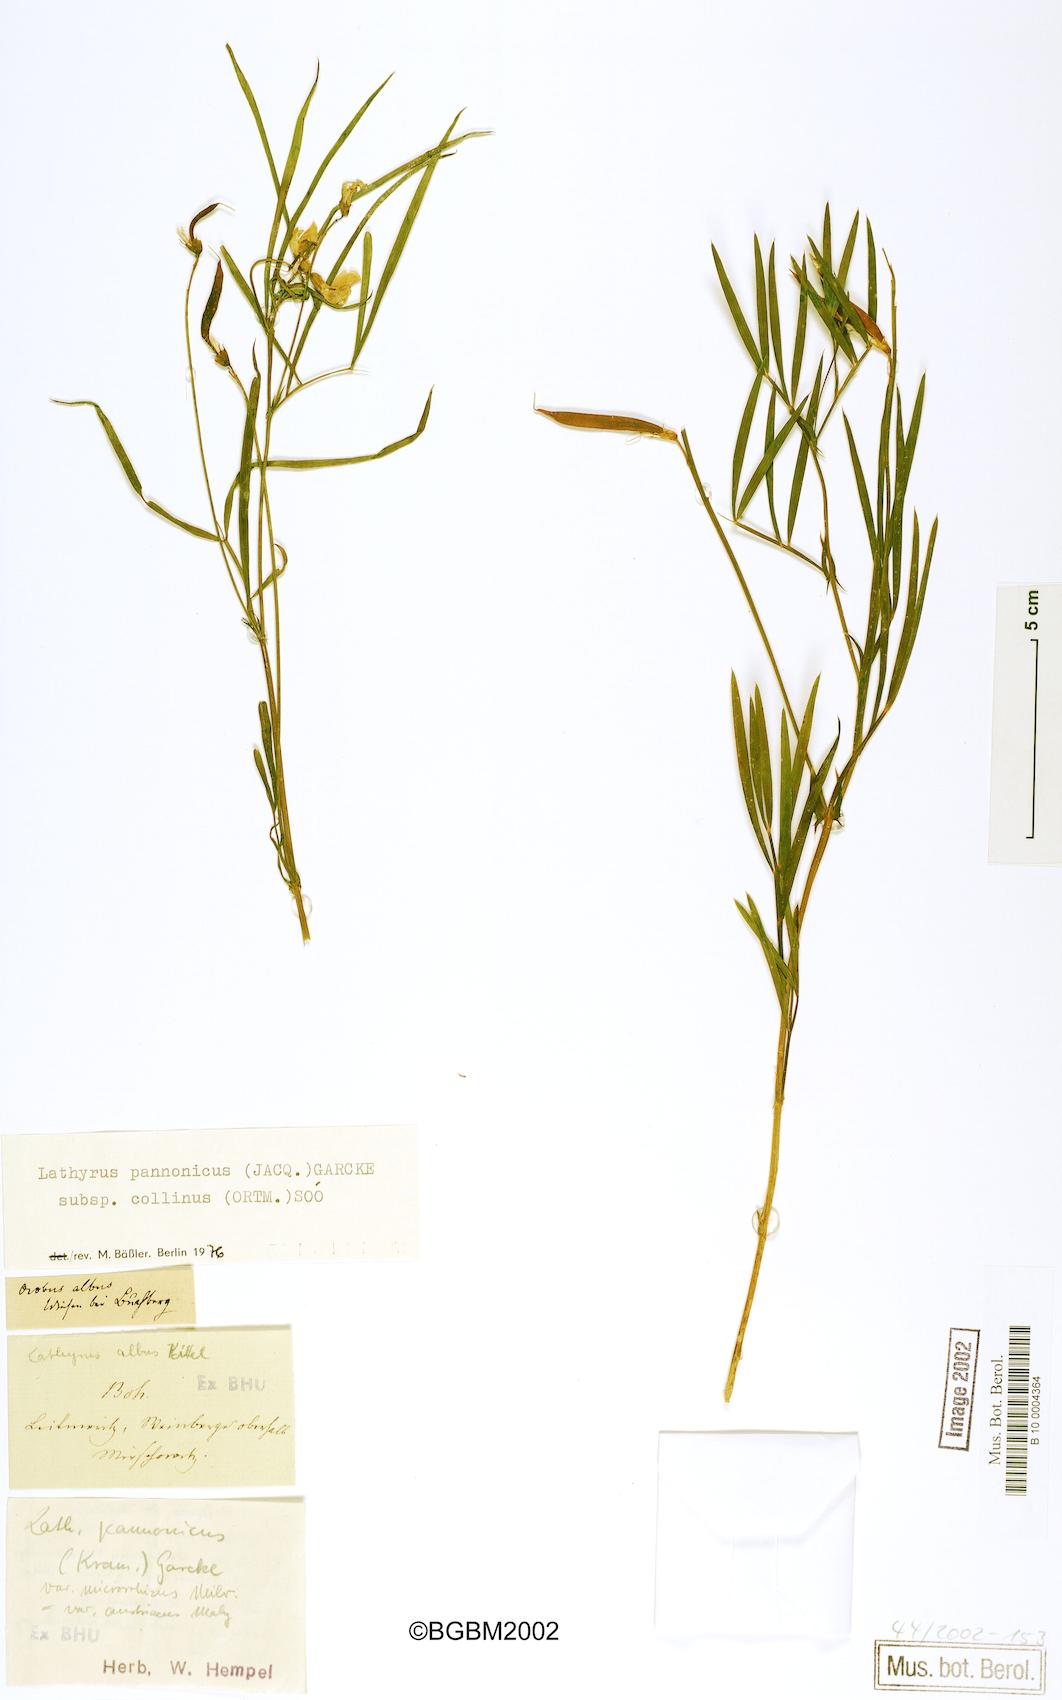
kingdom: Plantae
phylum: Tracheophyta
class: Magnoliopsida
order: Fabales
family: Fabaceae
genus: Lathyrus
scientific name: Lathyrus pannonicus
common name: Pea
